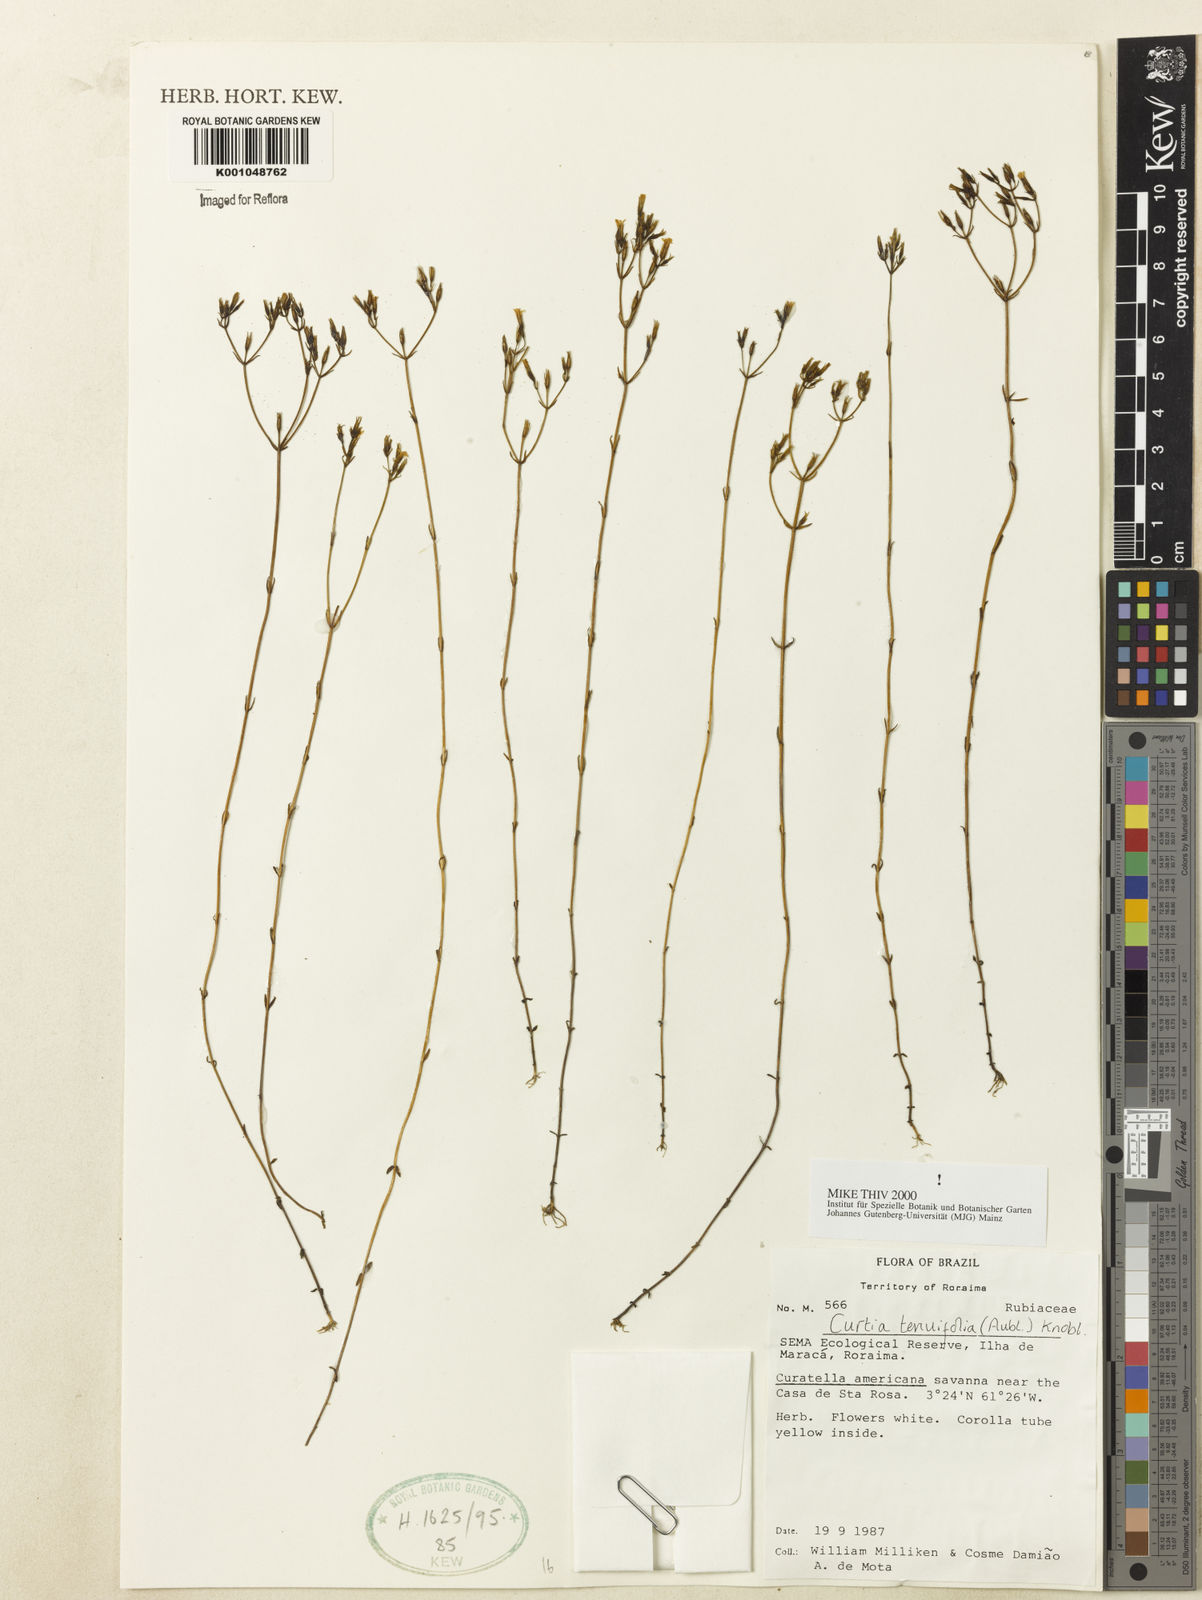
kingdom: Plantae
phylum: Tracheophyta
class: Magnoliopsida
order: Gentianales
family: Gentianaceae
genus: Curtia
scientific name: Curtia tenuifolia
